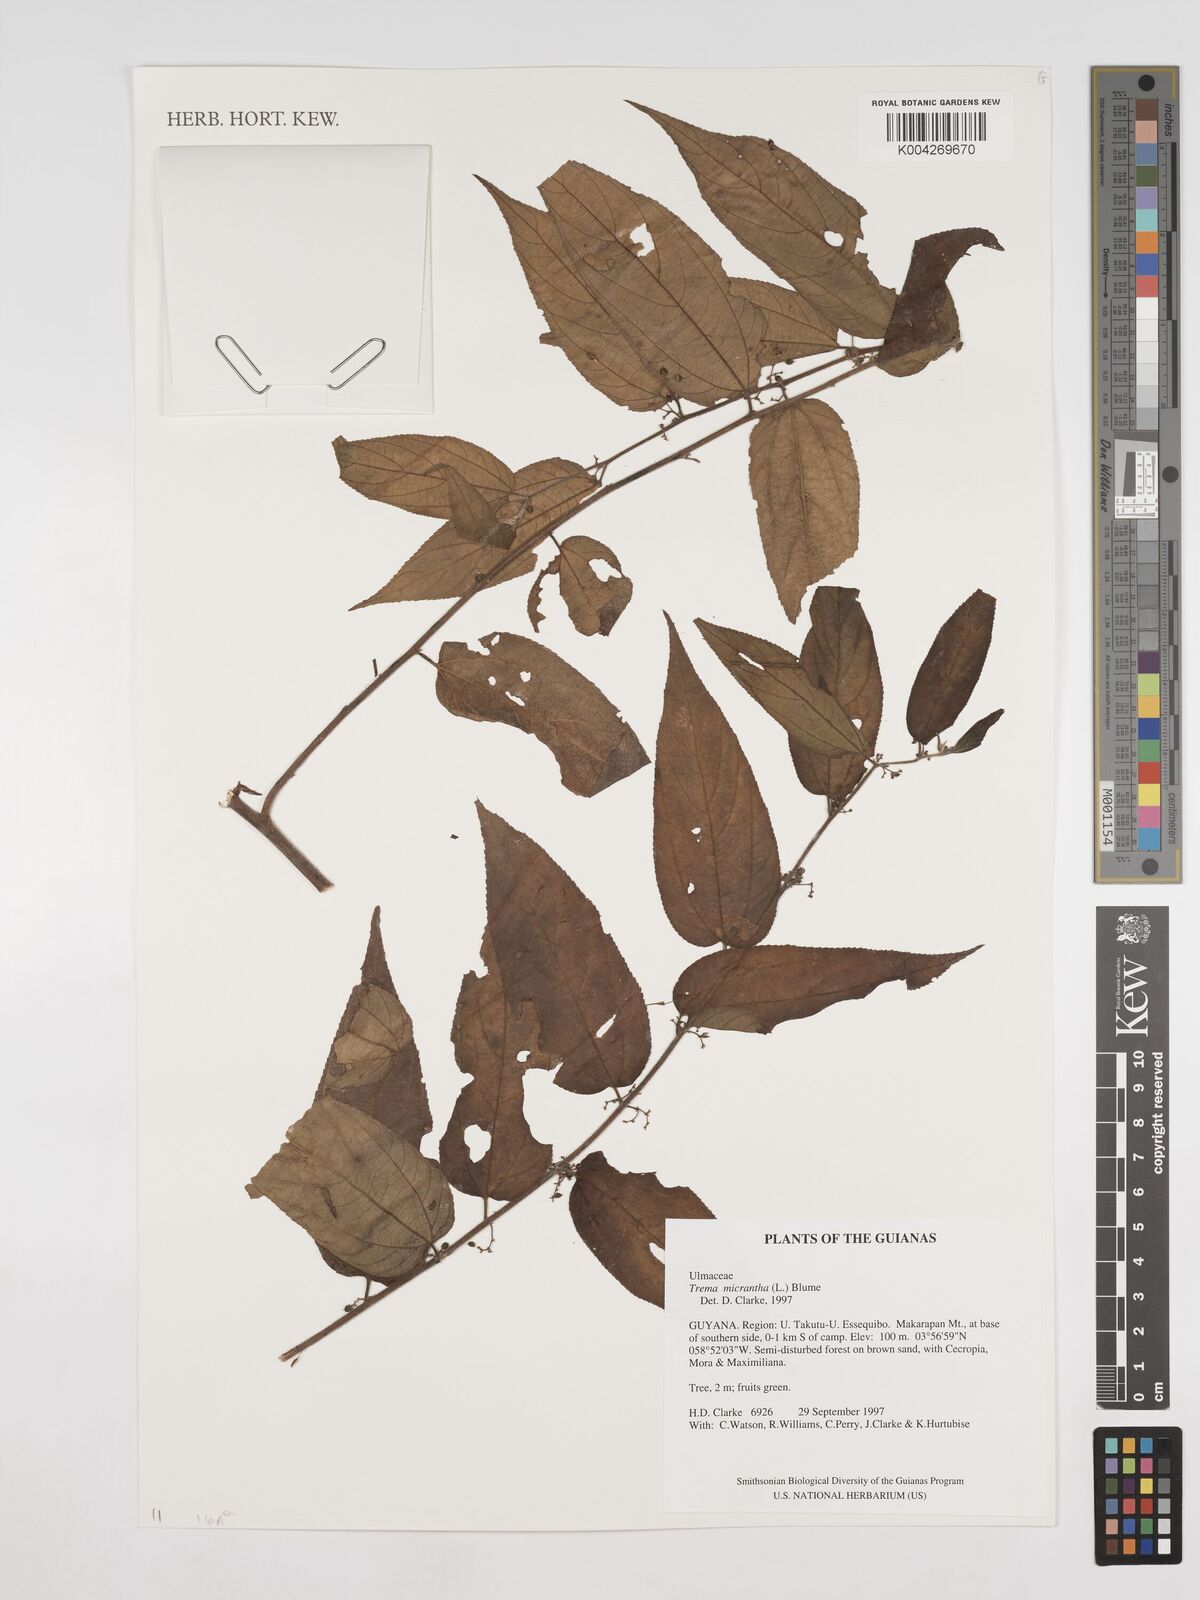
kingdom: Plantae
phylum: Tracheophyta
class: Magnoliopsida
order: Rosales
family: Cannabaceae
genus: Trema
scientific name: Trema micranthum
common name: Jamaican nettletree
